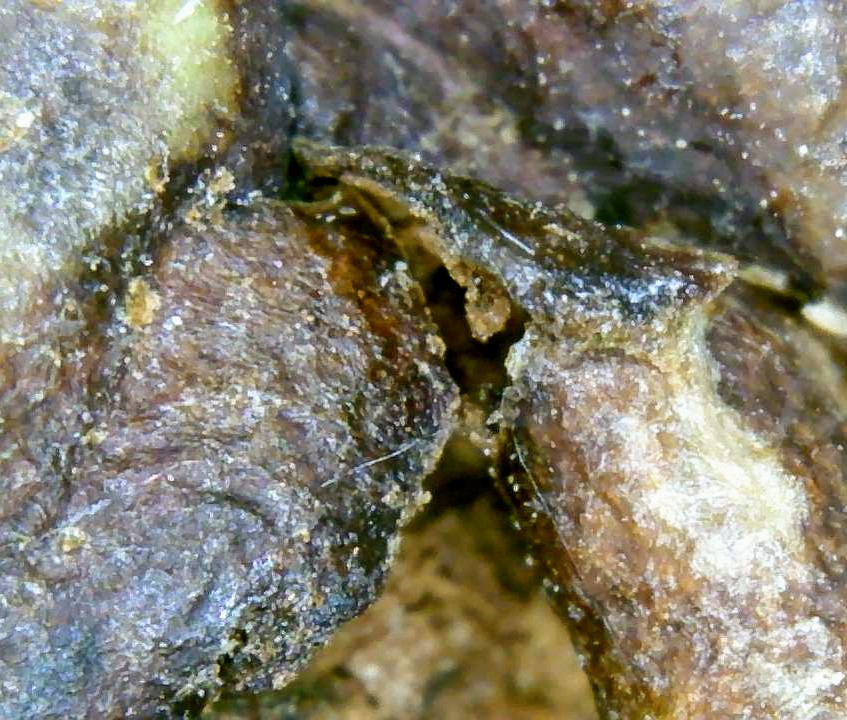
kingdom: Fungi
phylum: Ascomycota
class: Sordariomycetes
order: Diaporthales
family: Gnomoniaceae
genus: Ophiognomonia
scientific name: Ophiognomonia leptostyla
